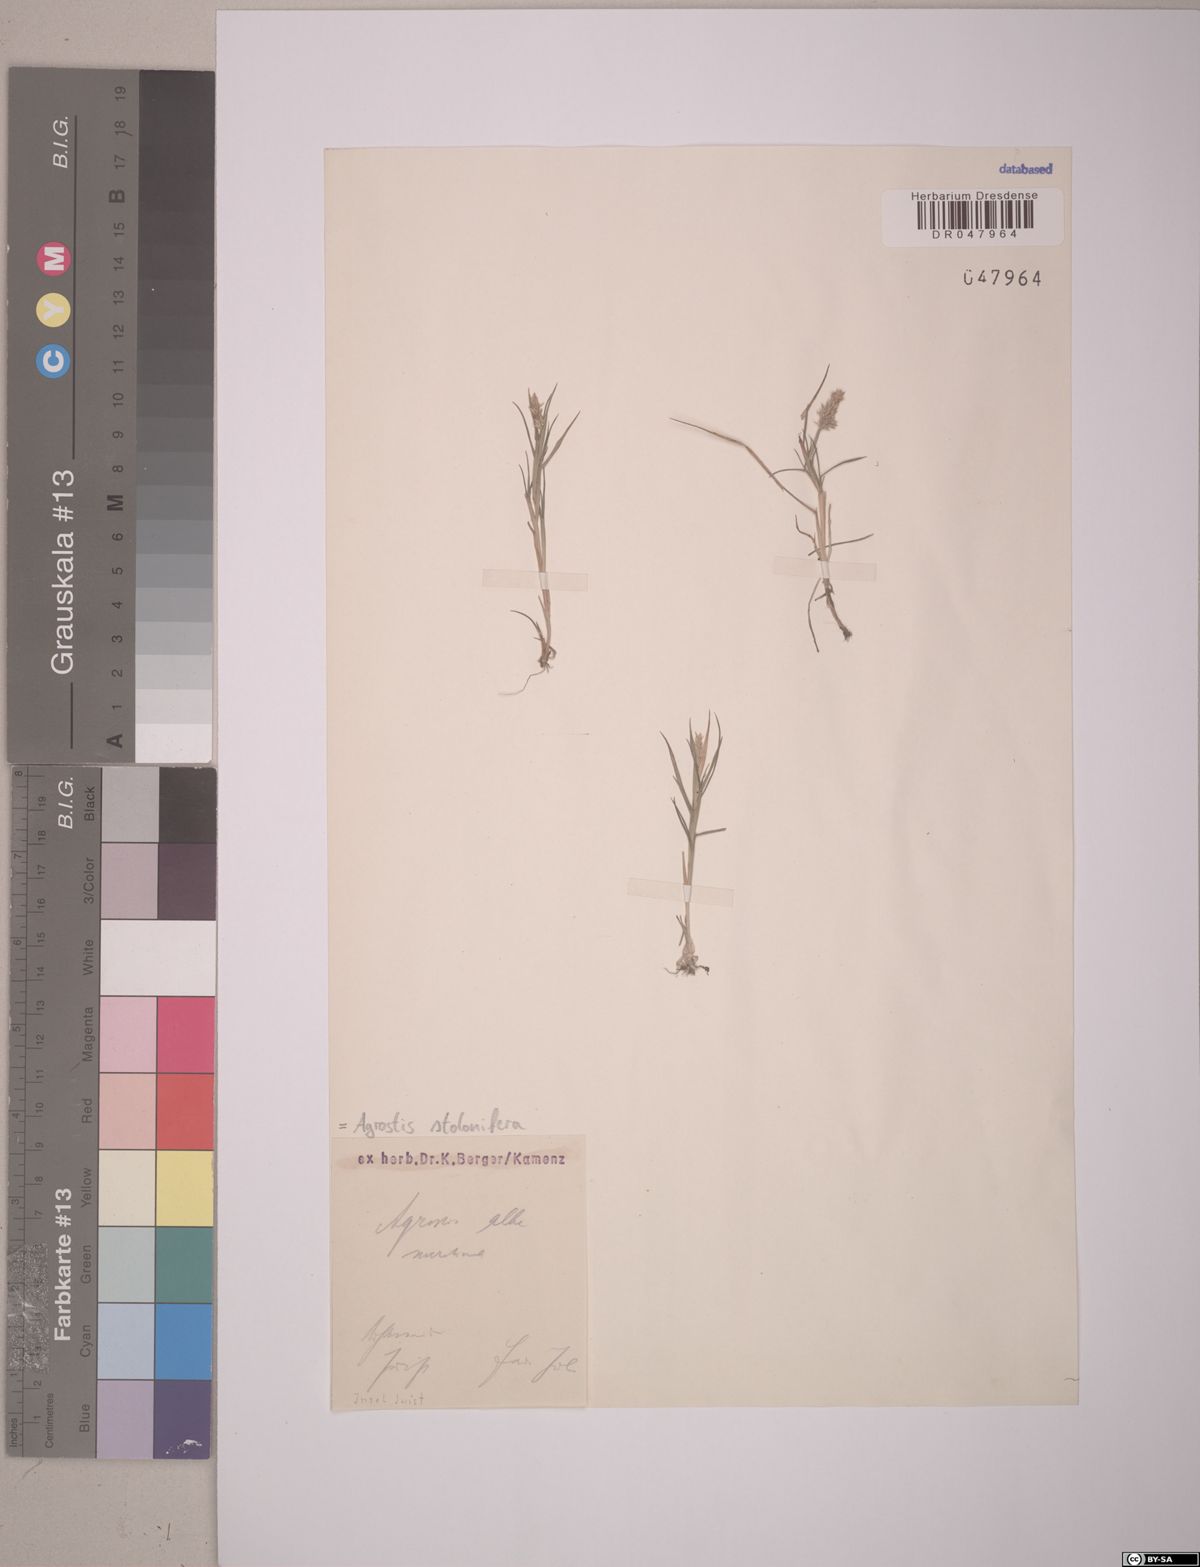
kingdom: Plantae
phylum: Tracheophyta
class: Liliopsida
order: Poales
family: Poaceae
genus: Agrostis
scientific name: Agrostis stolonifera
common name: Creeping bentgrass
